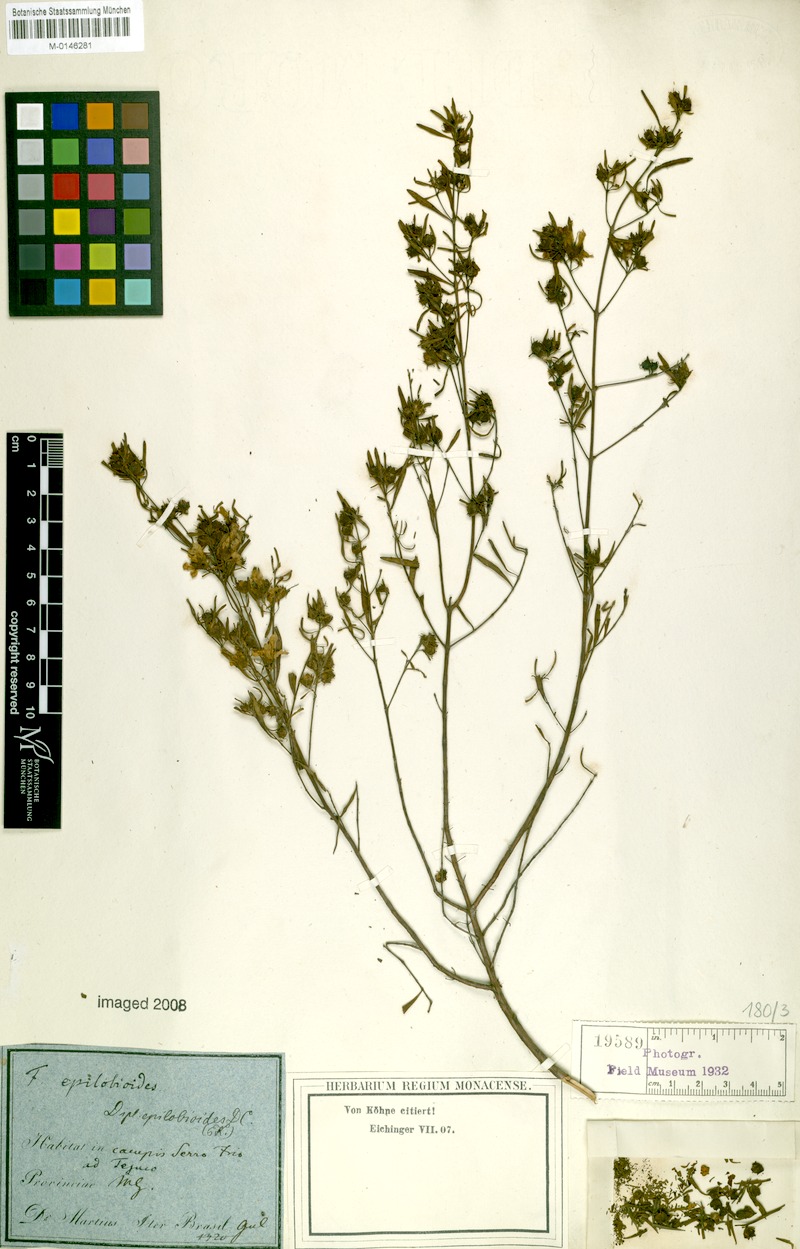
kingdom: Plantae
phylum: Tracheophyta
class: Magnoliopsida
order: Myrtales
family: Lythraceae
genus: Diplusodon
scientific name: Diplusodon epilobioides
